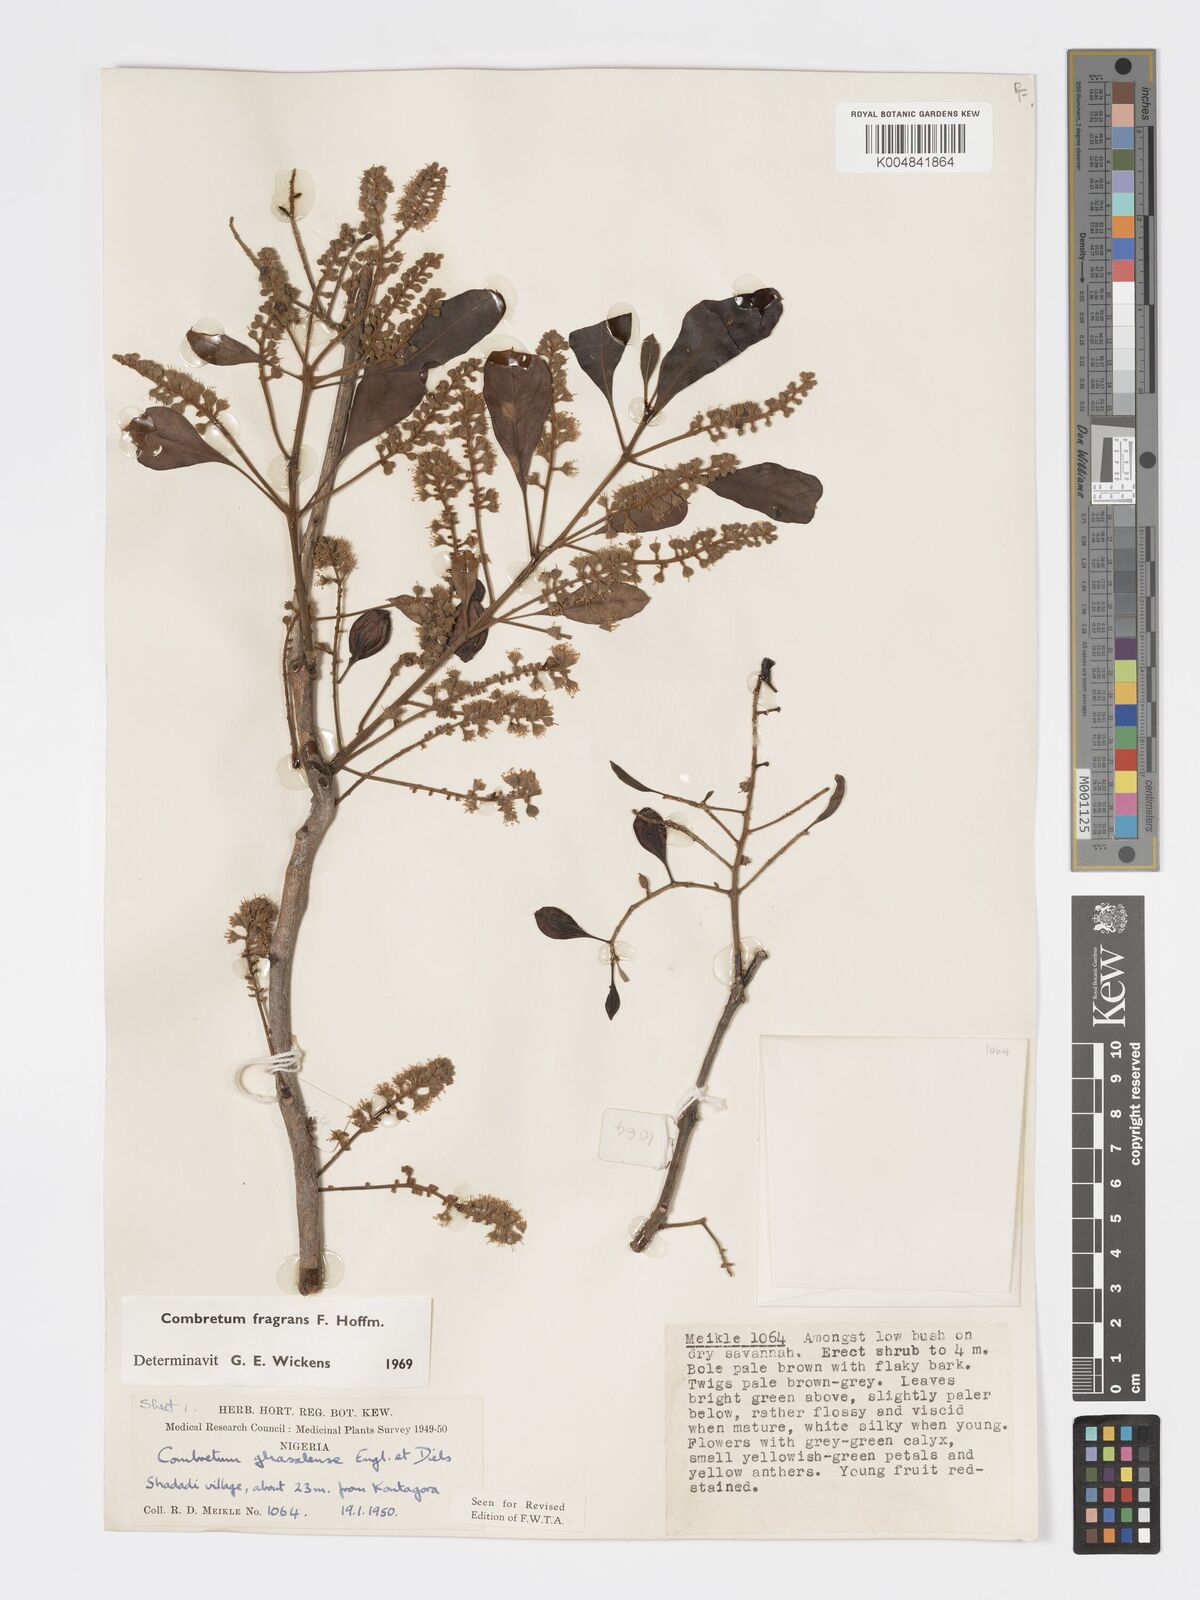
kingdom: Plantae
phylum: Tracheophyta
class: Magnoliopsida
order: Myrtales
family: Combretaceae
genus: Combretum
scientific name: Combretum adenogonium
